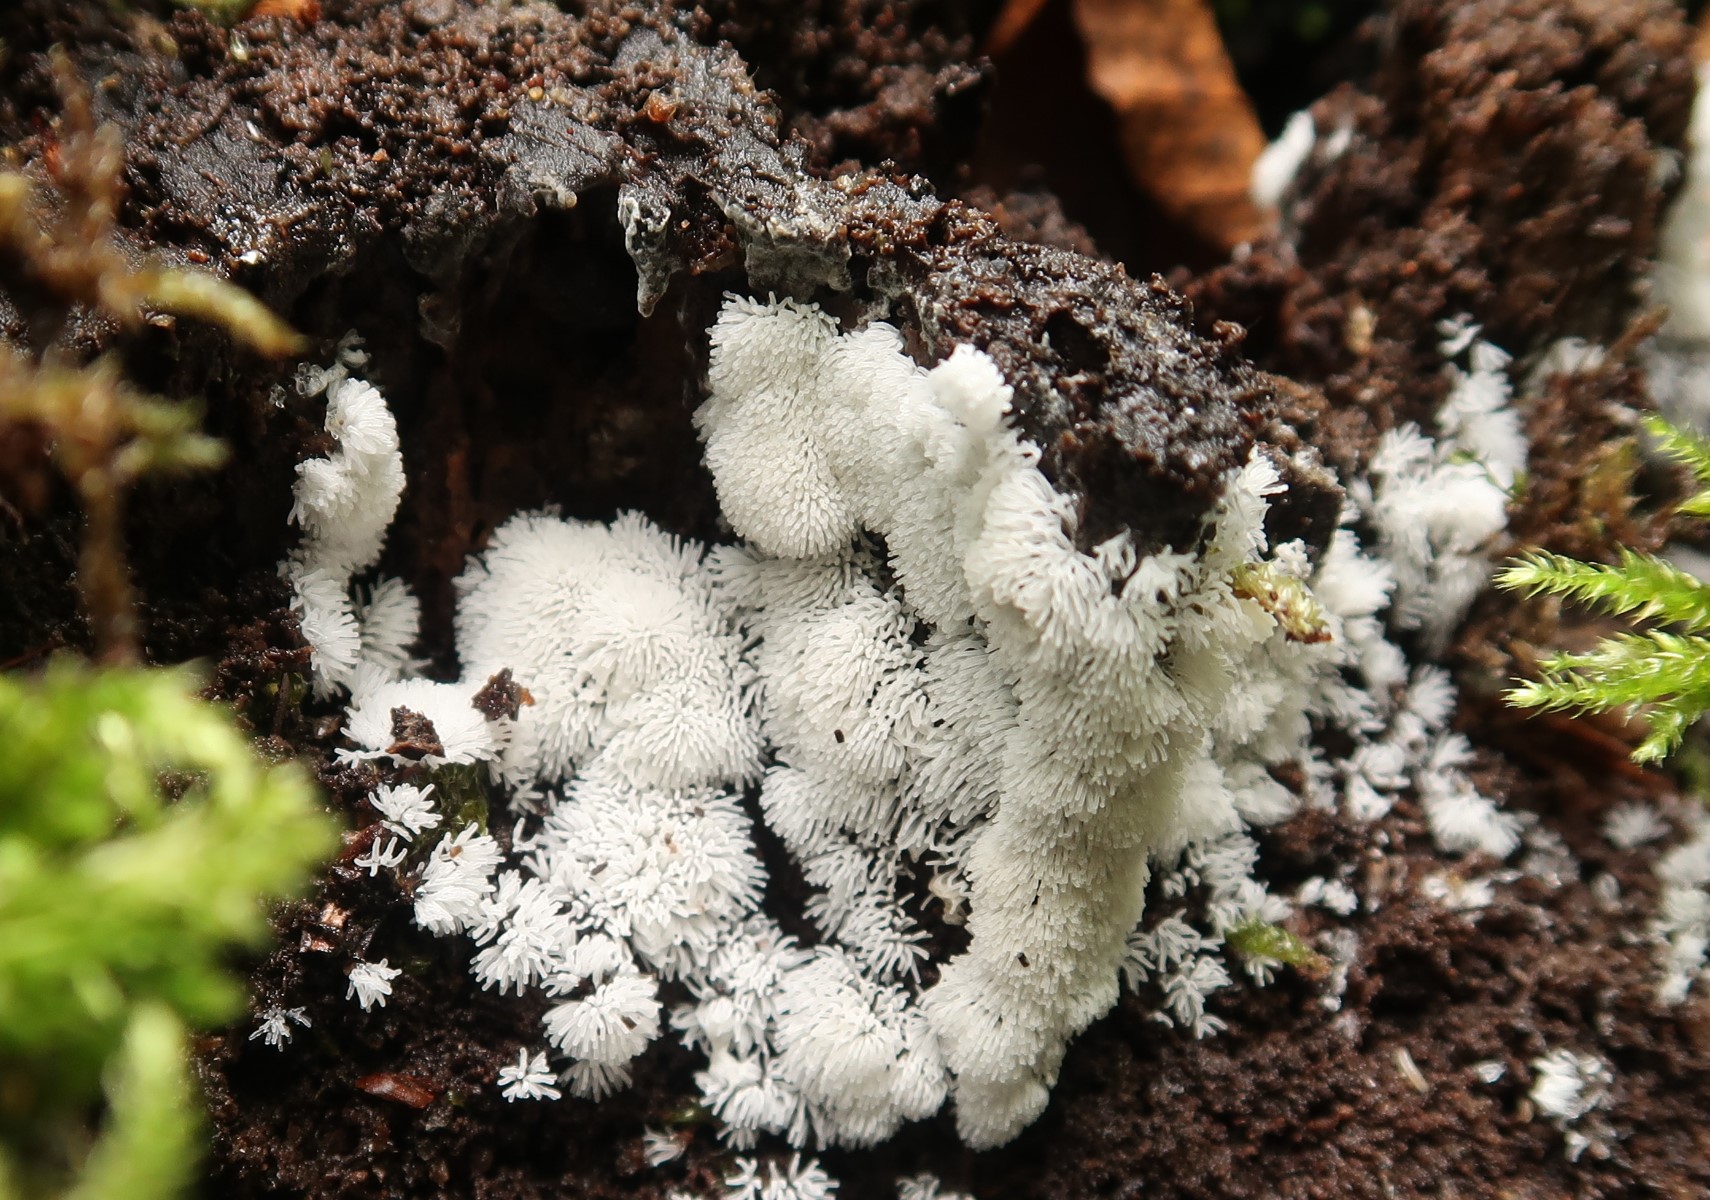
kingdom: Protozoa
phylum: Mycetozoa
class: Protosteliomycetes
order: Ceratiomyxales
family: Ceratiomyxaceae
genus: Ceratiomyxa
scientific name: Ceratiomyxa fruticulosa
